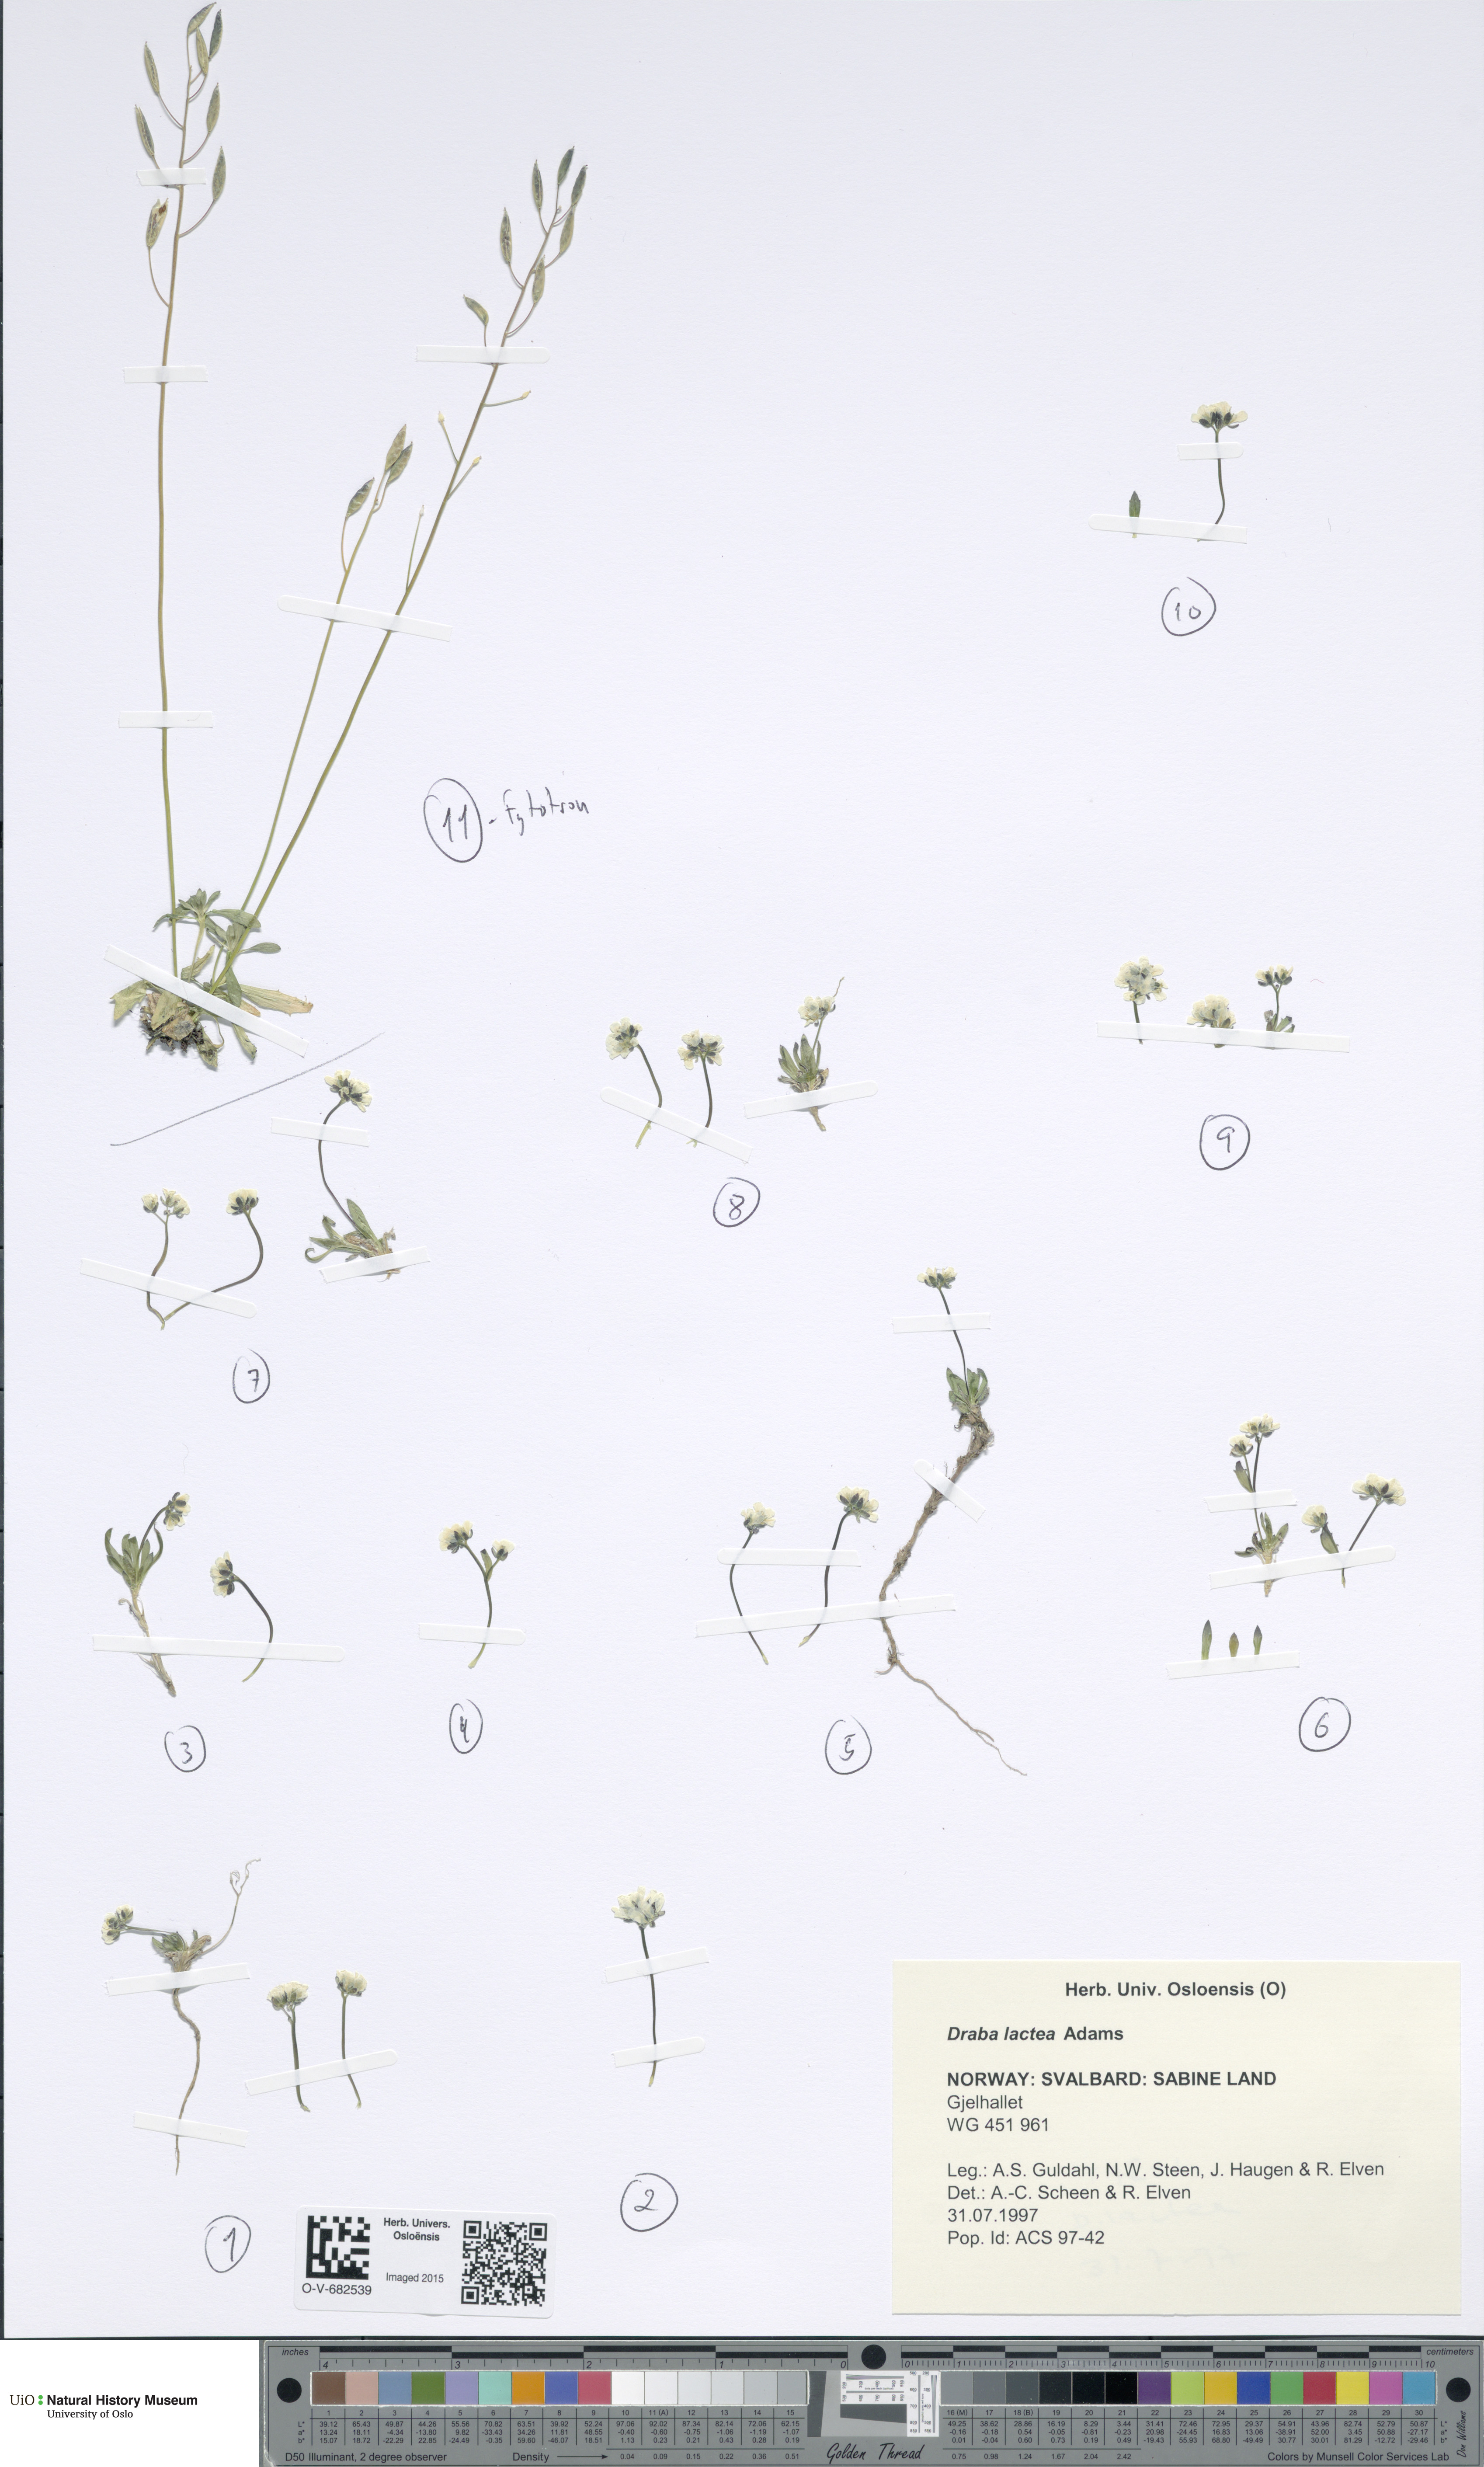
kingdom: Plantae
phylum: Tracheophyta
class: Magnoliopsida
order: Brassicales
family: Brassicaceae
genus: Draba
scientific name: Draba lactea
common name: Milky draba
